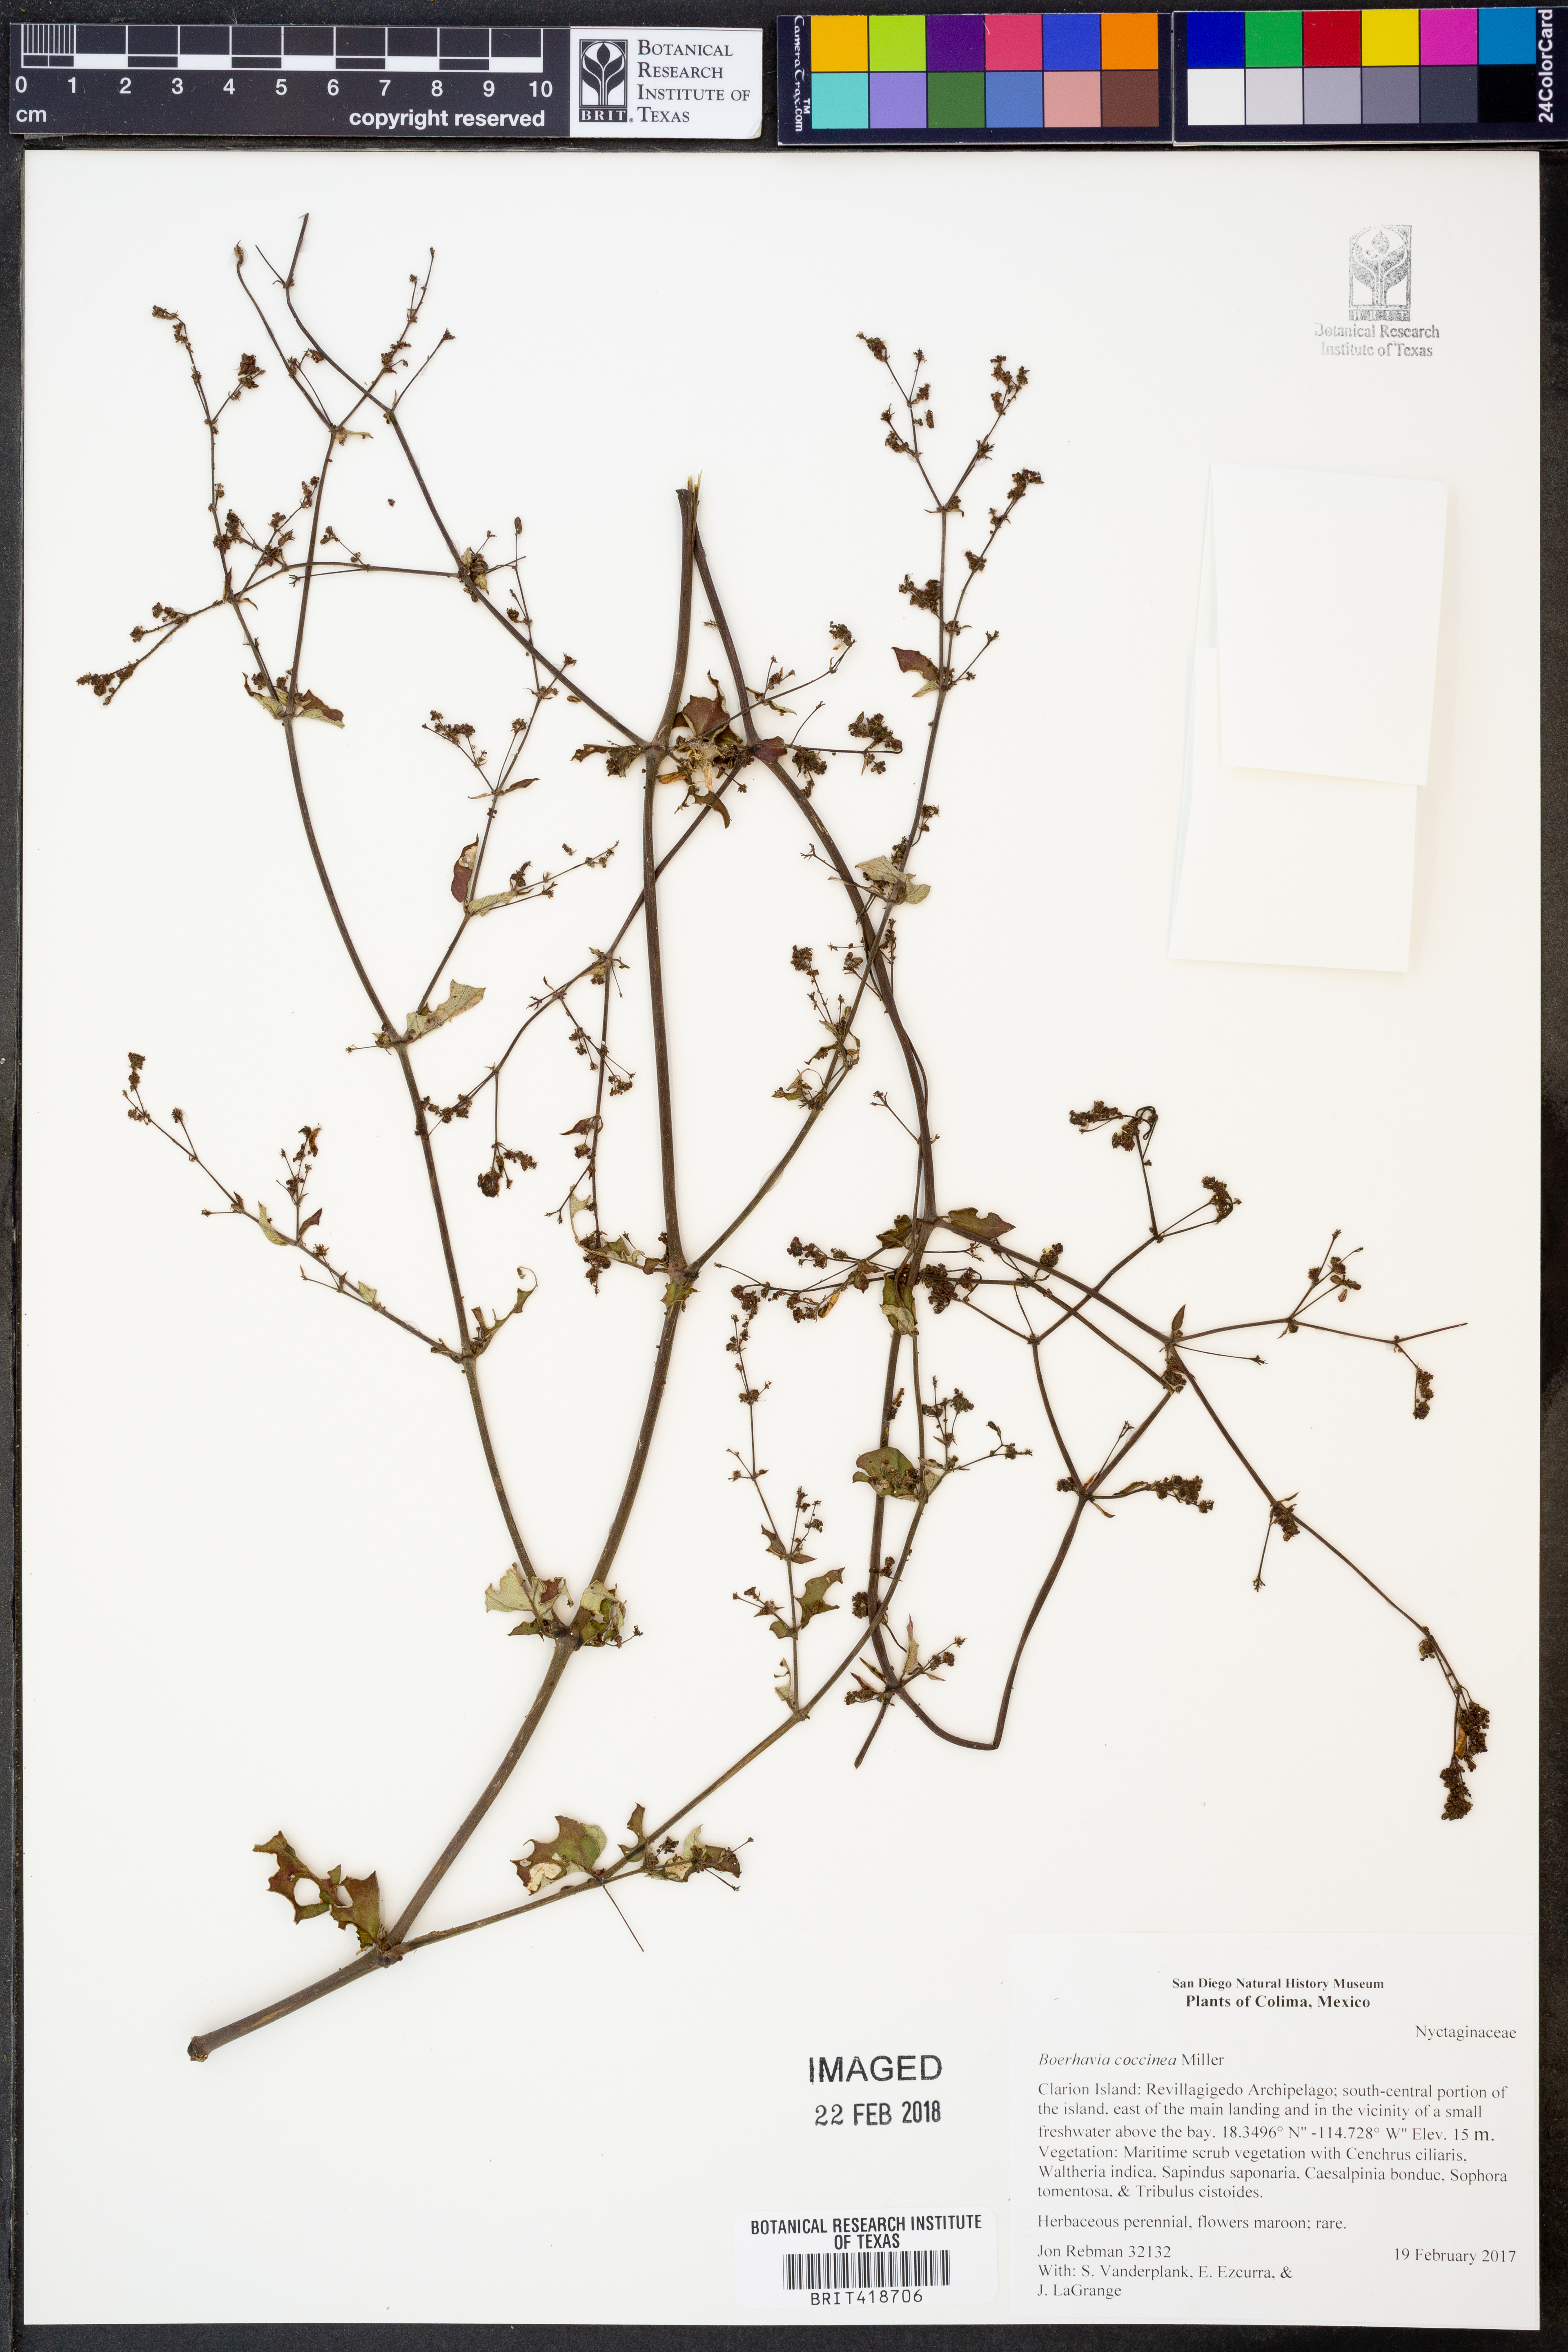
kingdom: Plantae
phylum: Tracheophyta
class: Magnoliopsida
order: Caryophyllales
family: Nyctaginaceae
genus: Boerhavia
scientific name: Boerhavia coccinea
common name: Scarlet spiderling
